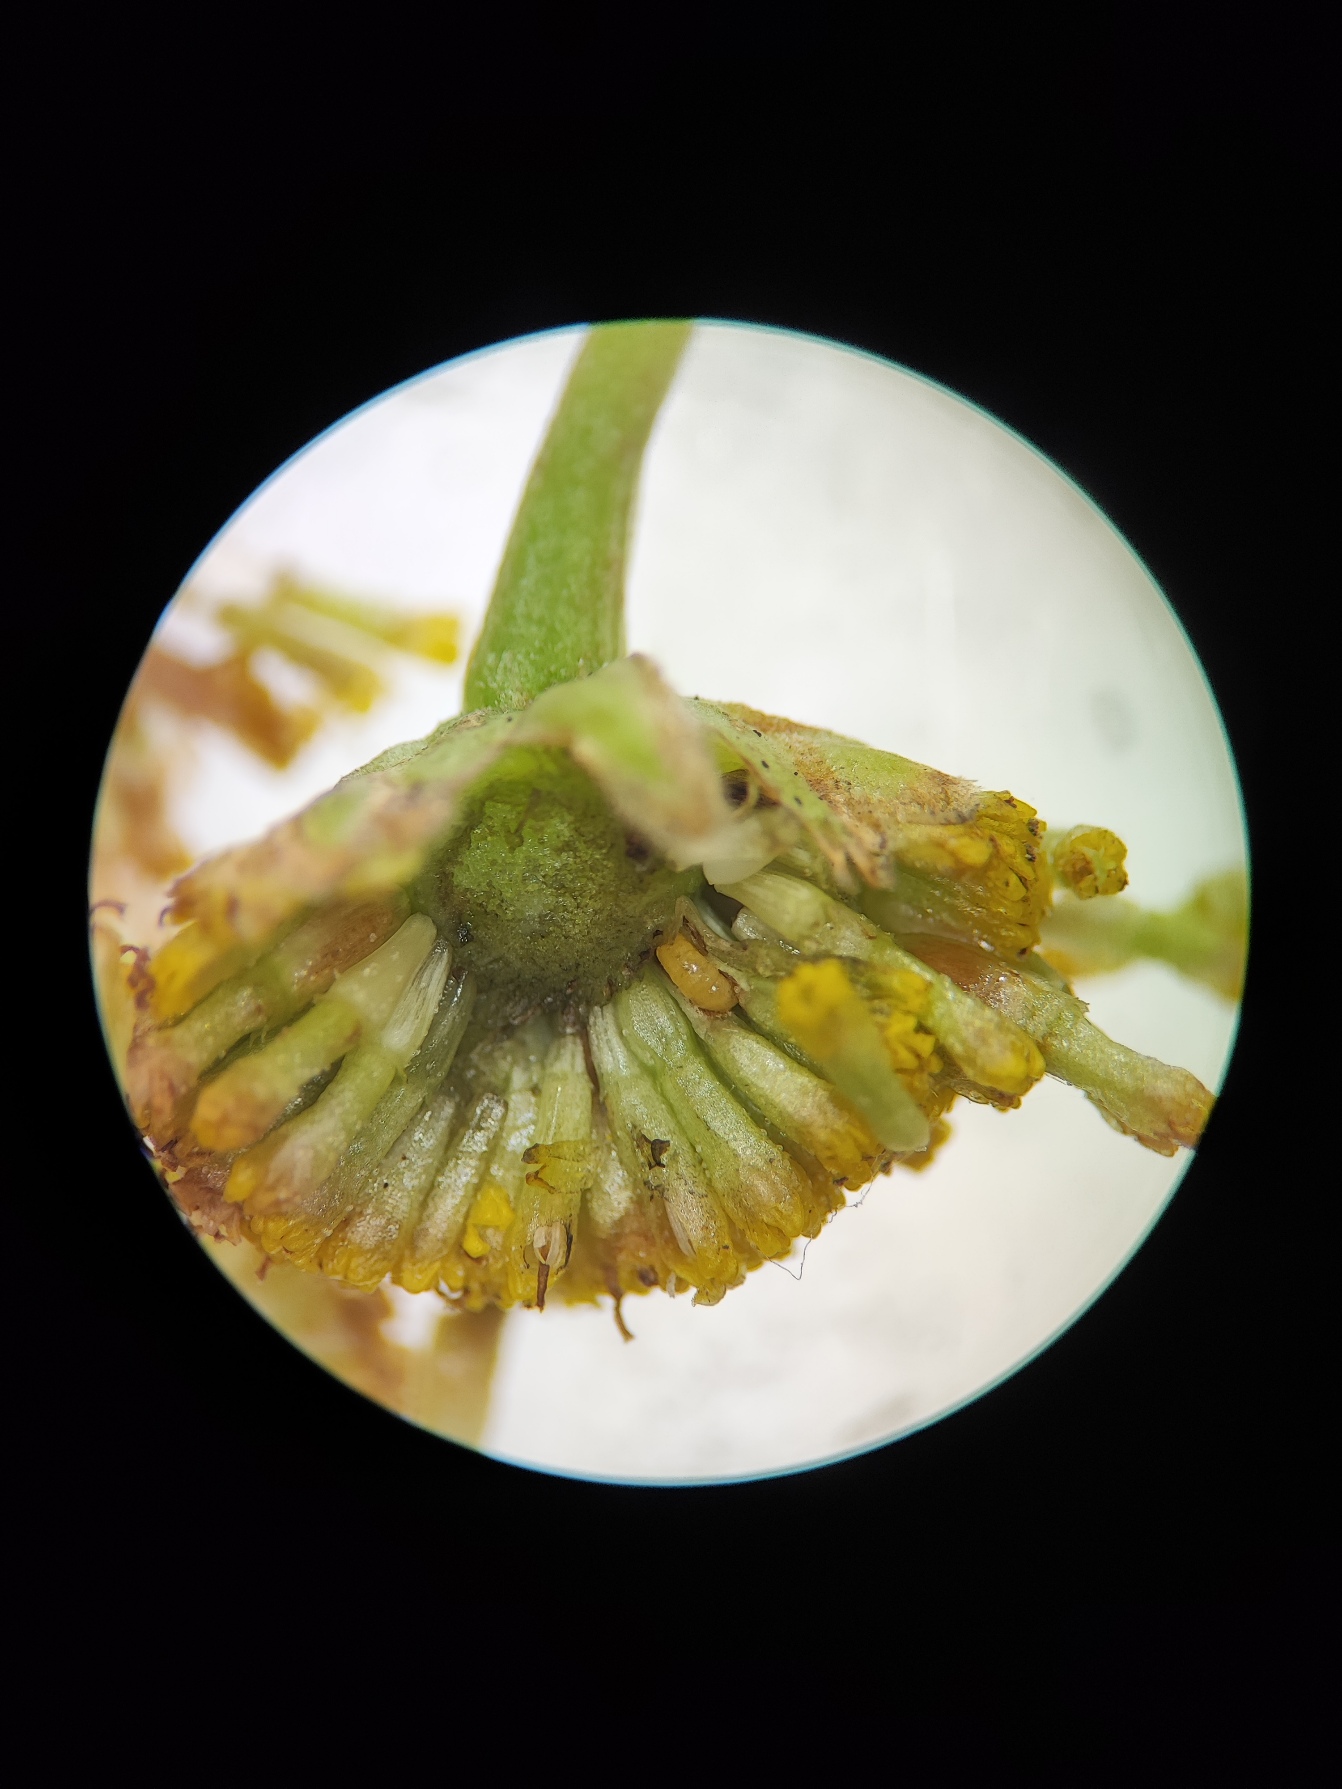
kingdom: Animalia
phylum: Arthropoda
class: Insecta
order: Diptera
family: Cecidomyiidae
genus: Contarinia
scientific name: Contarinia tanaceti
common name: Rajnfankurvgalmyg
